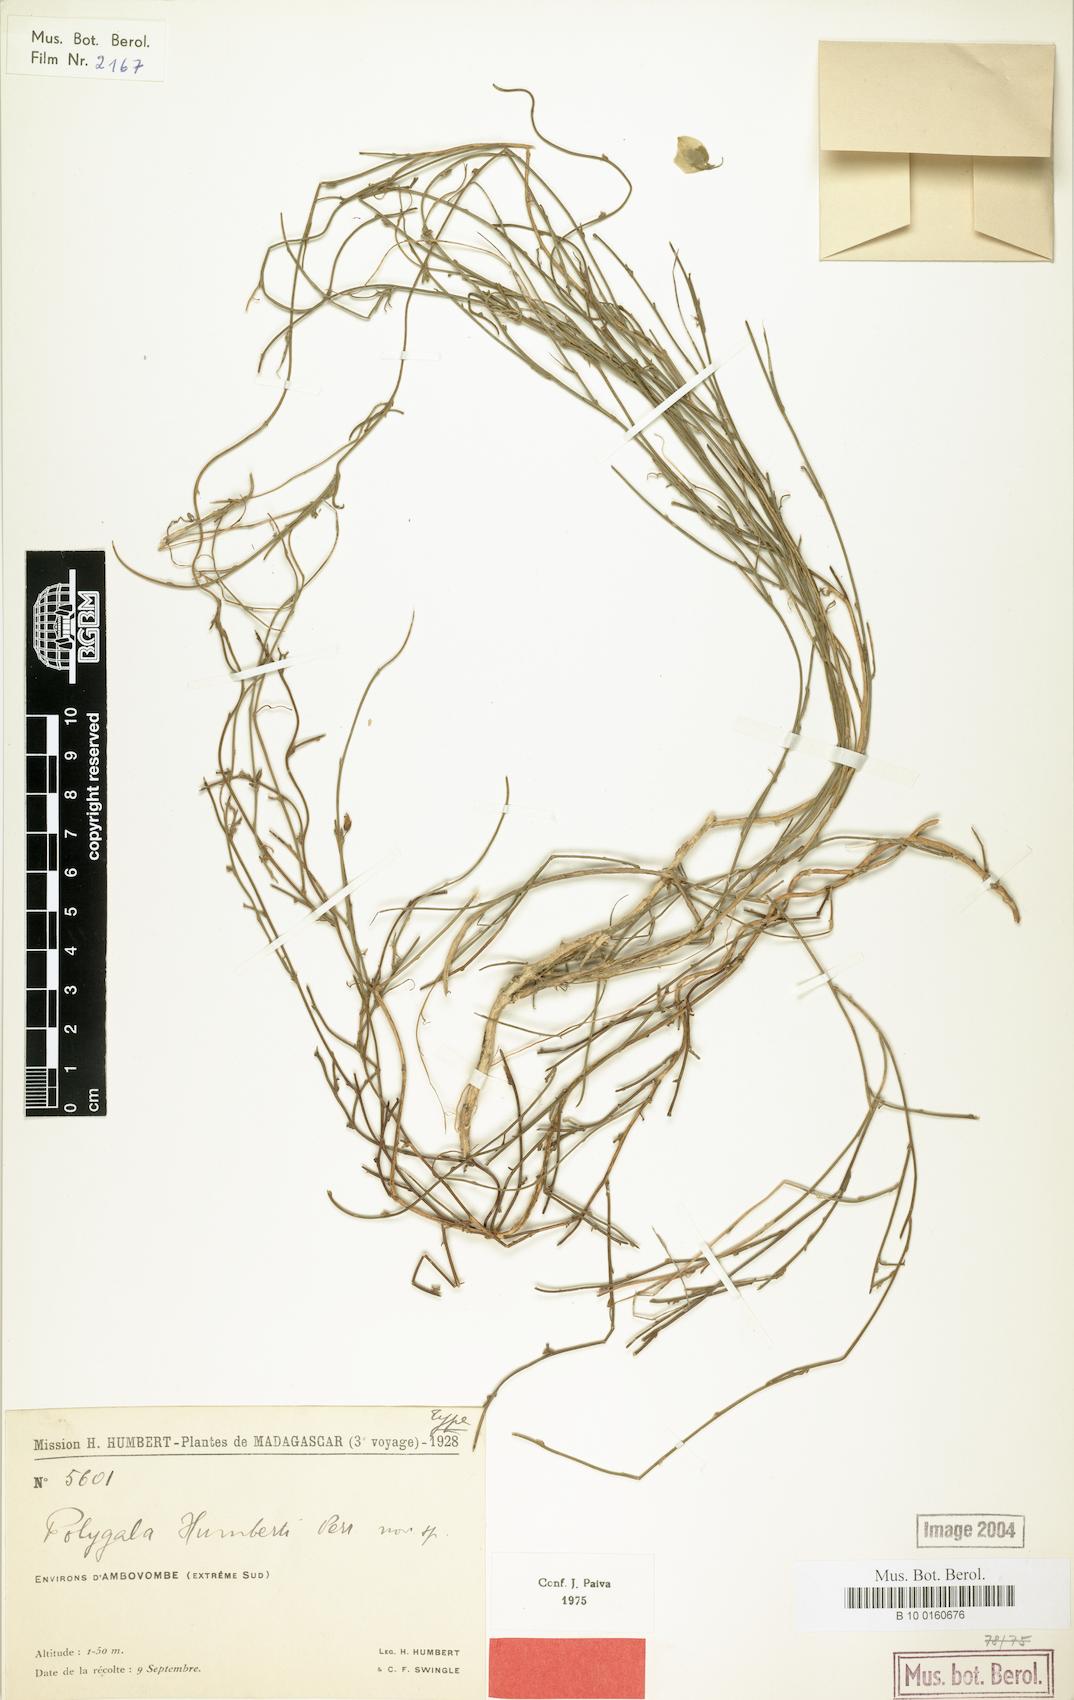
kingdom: Plantae
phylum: Tracheophyta
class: Magnoliopsida
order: Fabales
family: Polygalaceae
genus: Polygala
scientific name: Polygala humbertii
